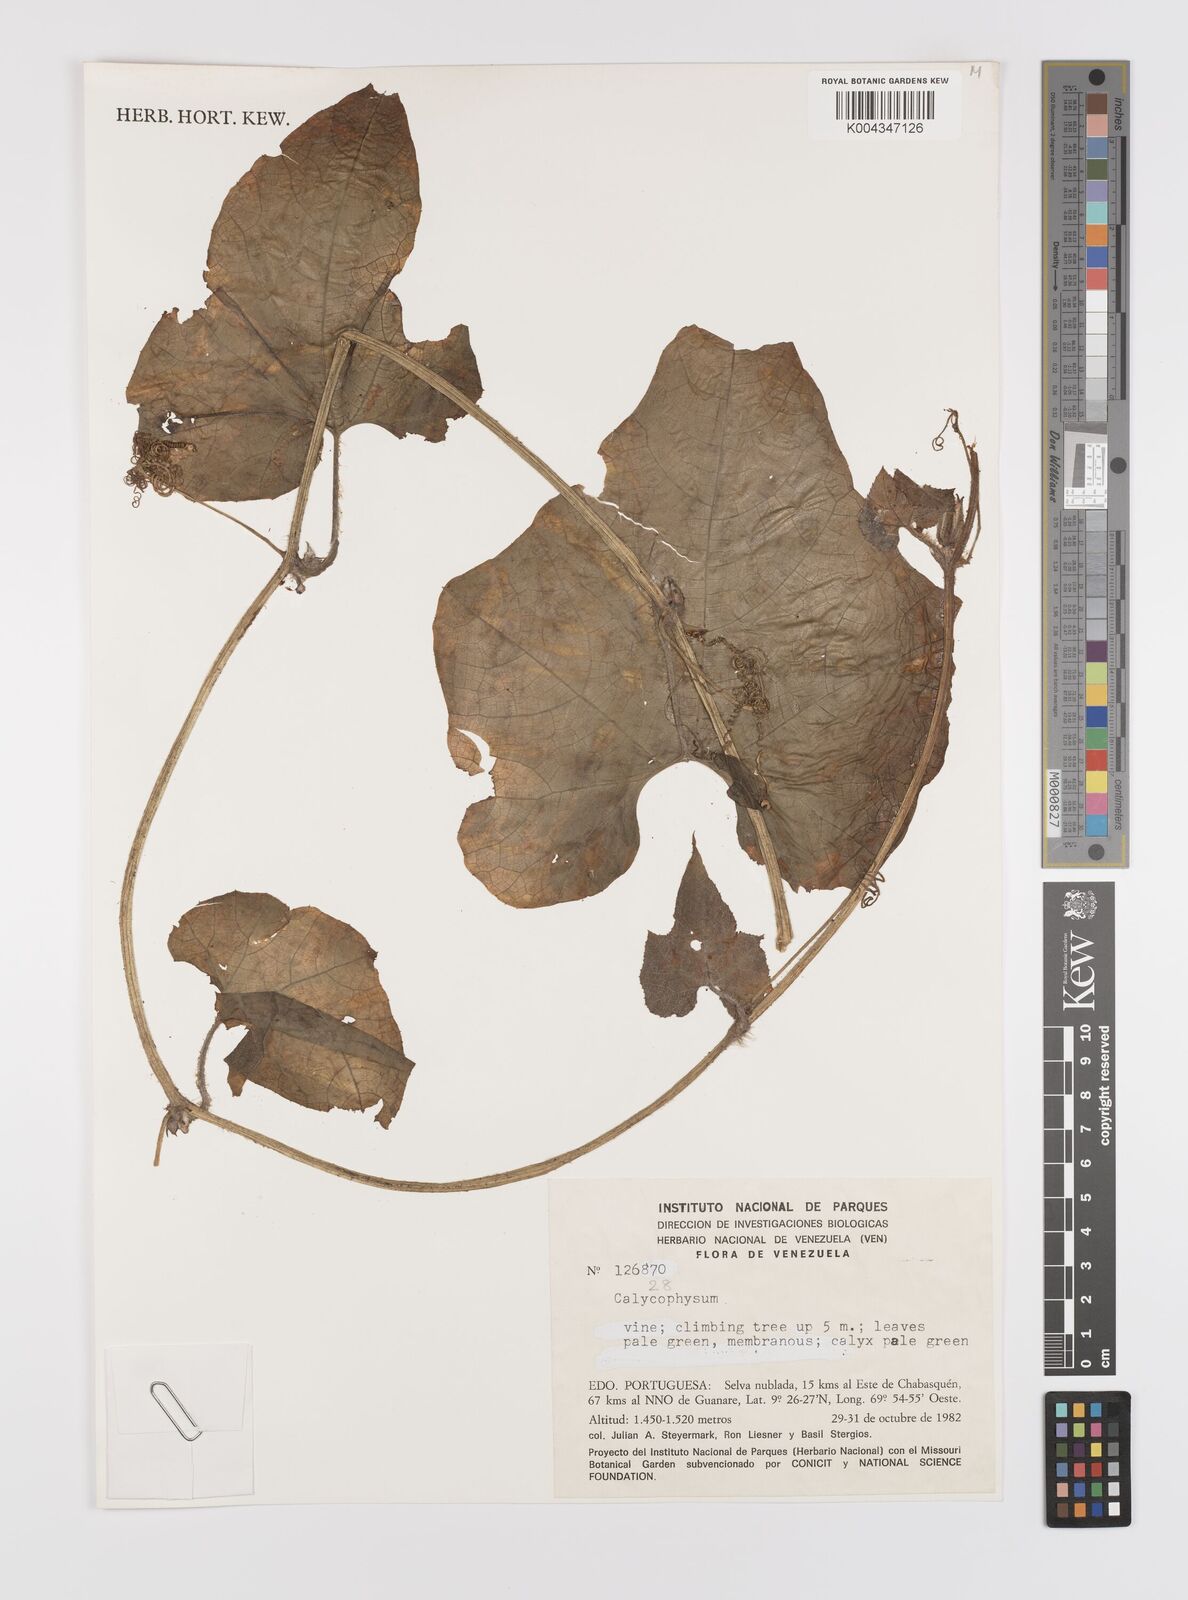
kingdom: Plantae
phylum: Tracheophyta
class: Magnoliopsida
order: Cucurbitales
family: Cucurbitaceae
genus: Calycophysum
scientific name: Calycophysum
